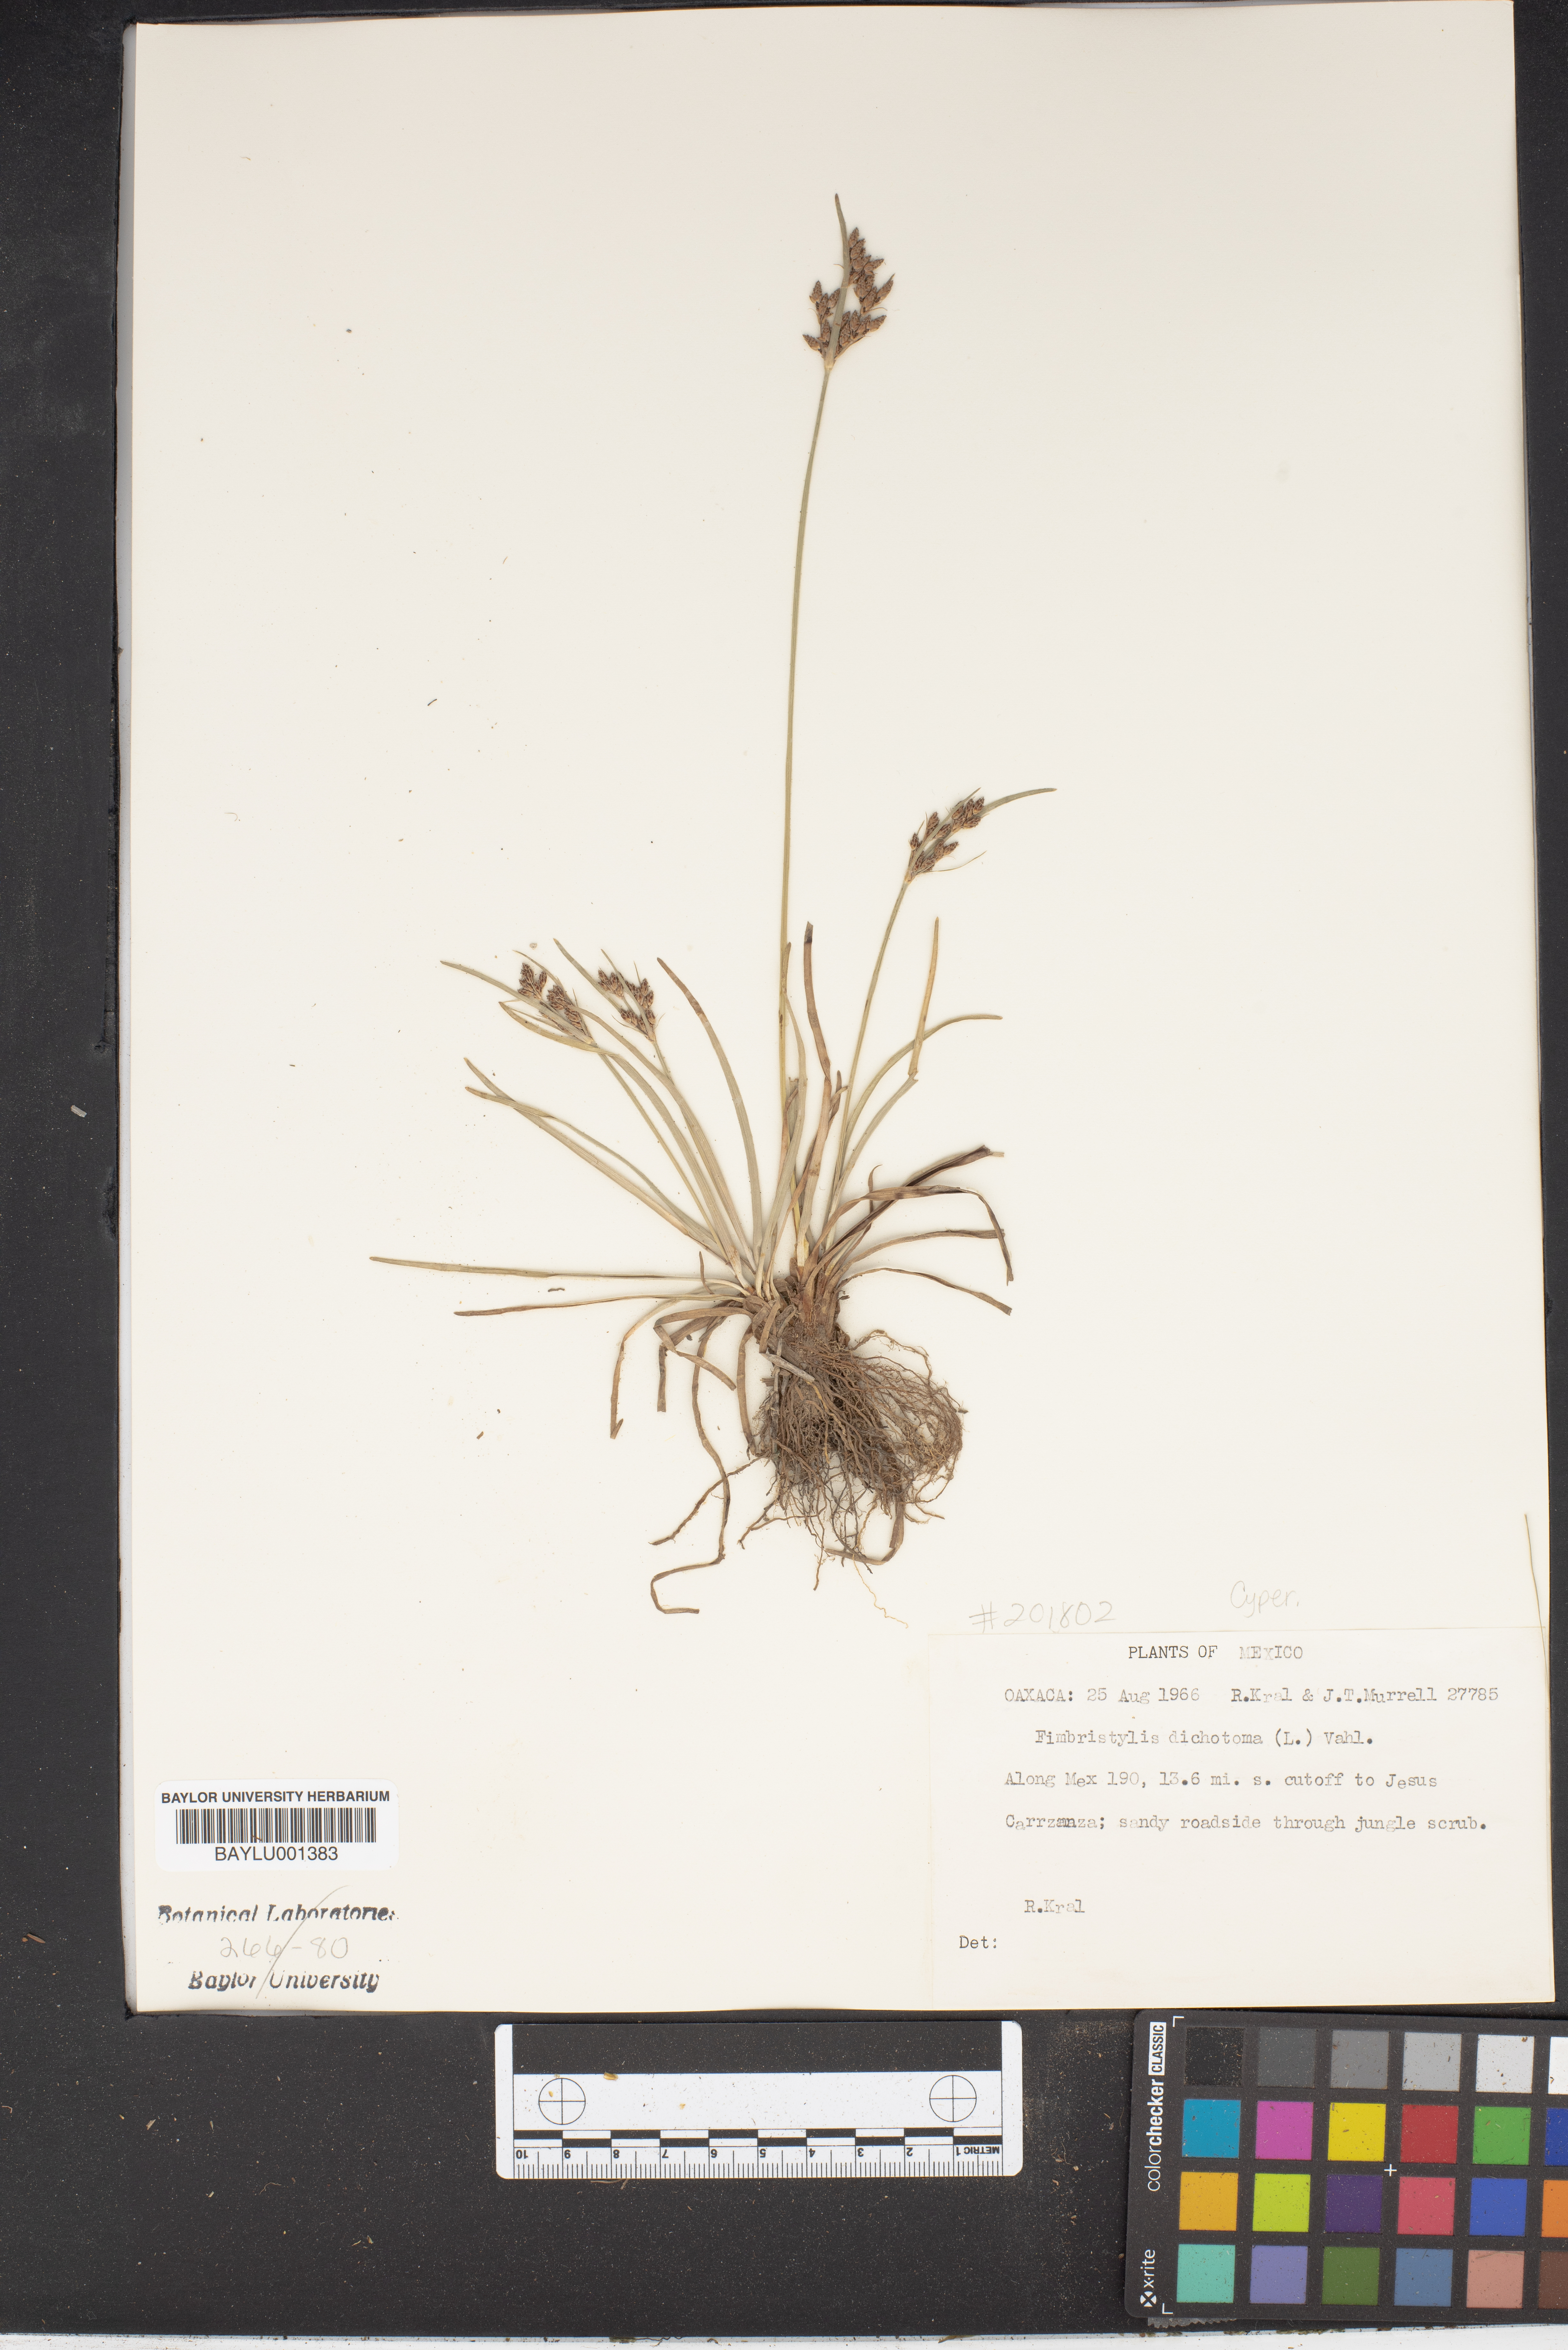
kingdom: Plantae
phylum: Tracheophyta
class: Liliopsida
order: Poales
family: Cyperaceae
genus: Fimbristylis
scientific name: Fimbristylis dichotoma
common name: Forked fimbry
